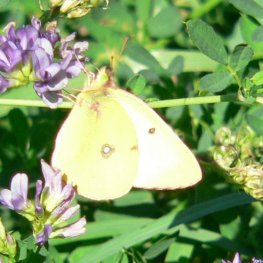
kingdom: Animalia
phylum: Arthropoda
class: Insecta
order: Lepidoptera
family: Pieridae
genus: Colias
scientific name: Colias philodice
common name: Clouded Sulphur
